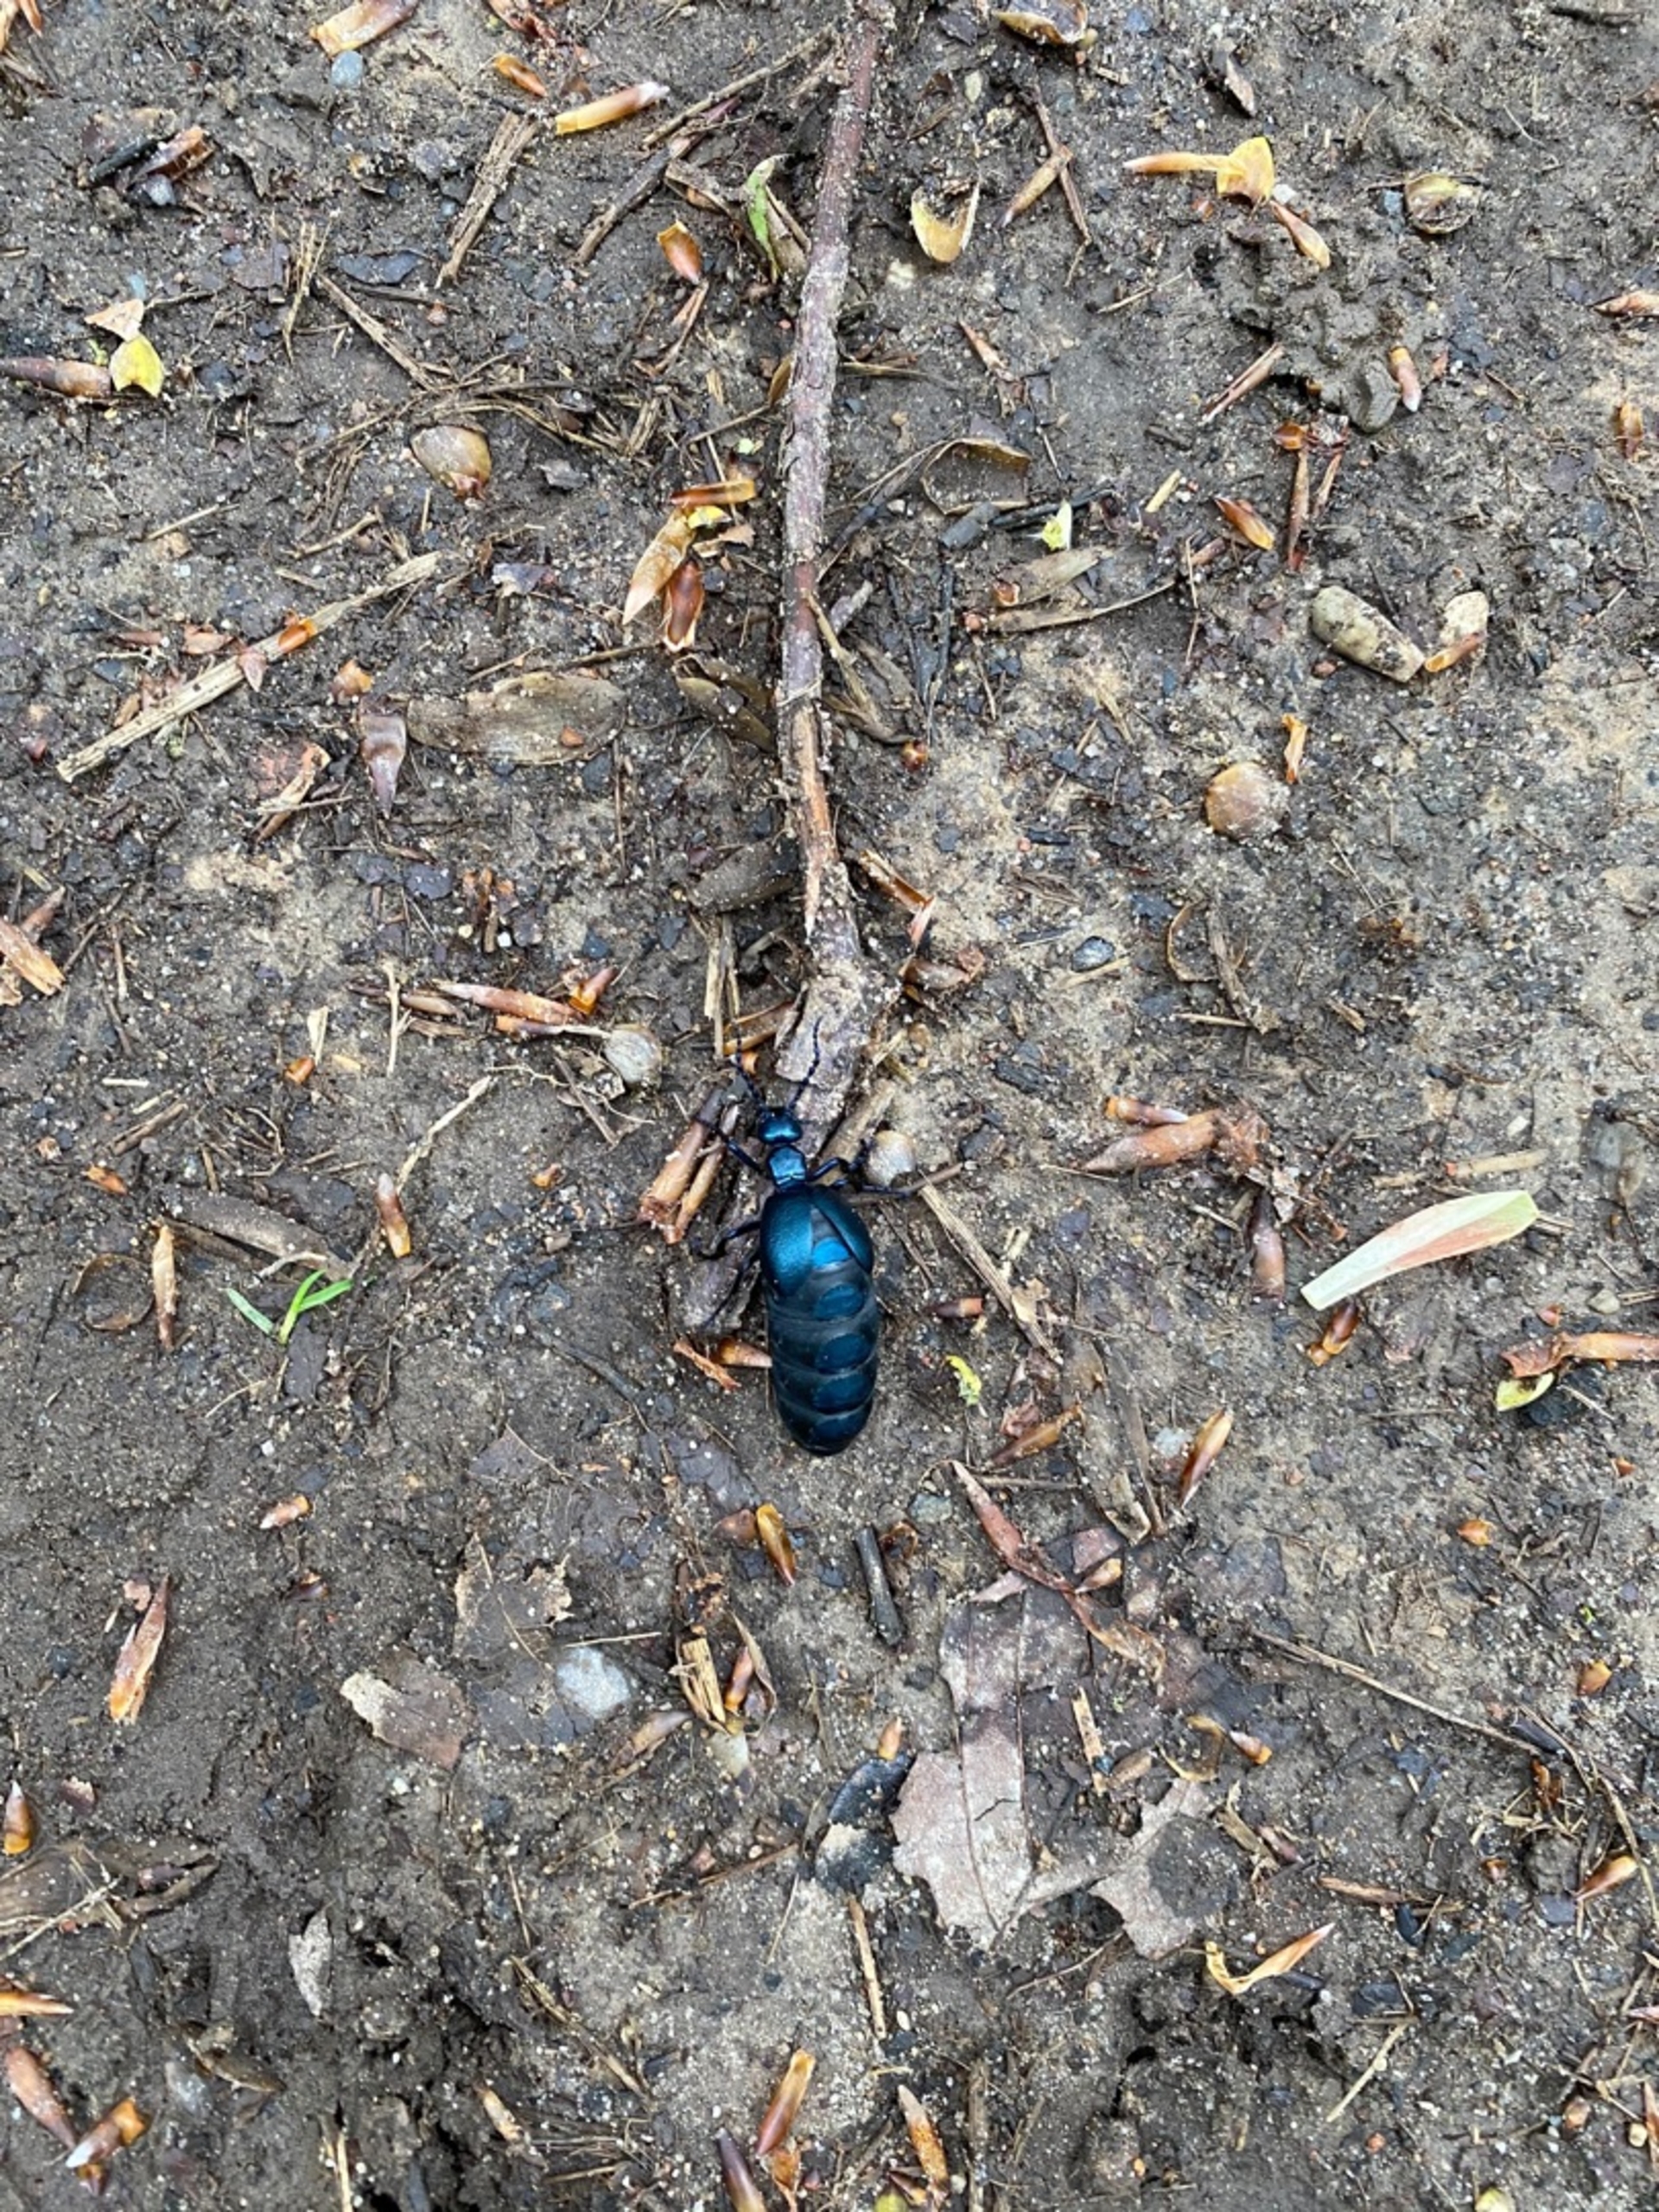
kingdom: Animalia
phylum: Arthropoda
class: Insecta
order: Coleoptera
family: Meloidae
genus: Meloe
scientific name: Meloe violaceus
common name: Blå oliebille
